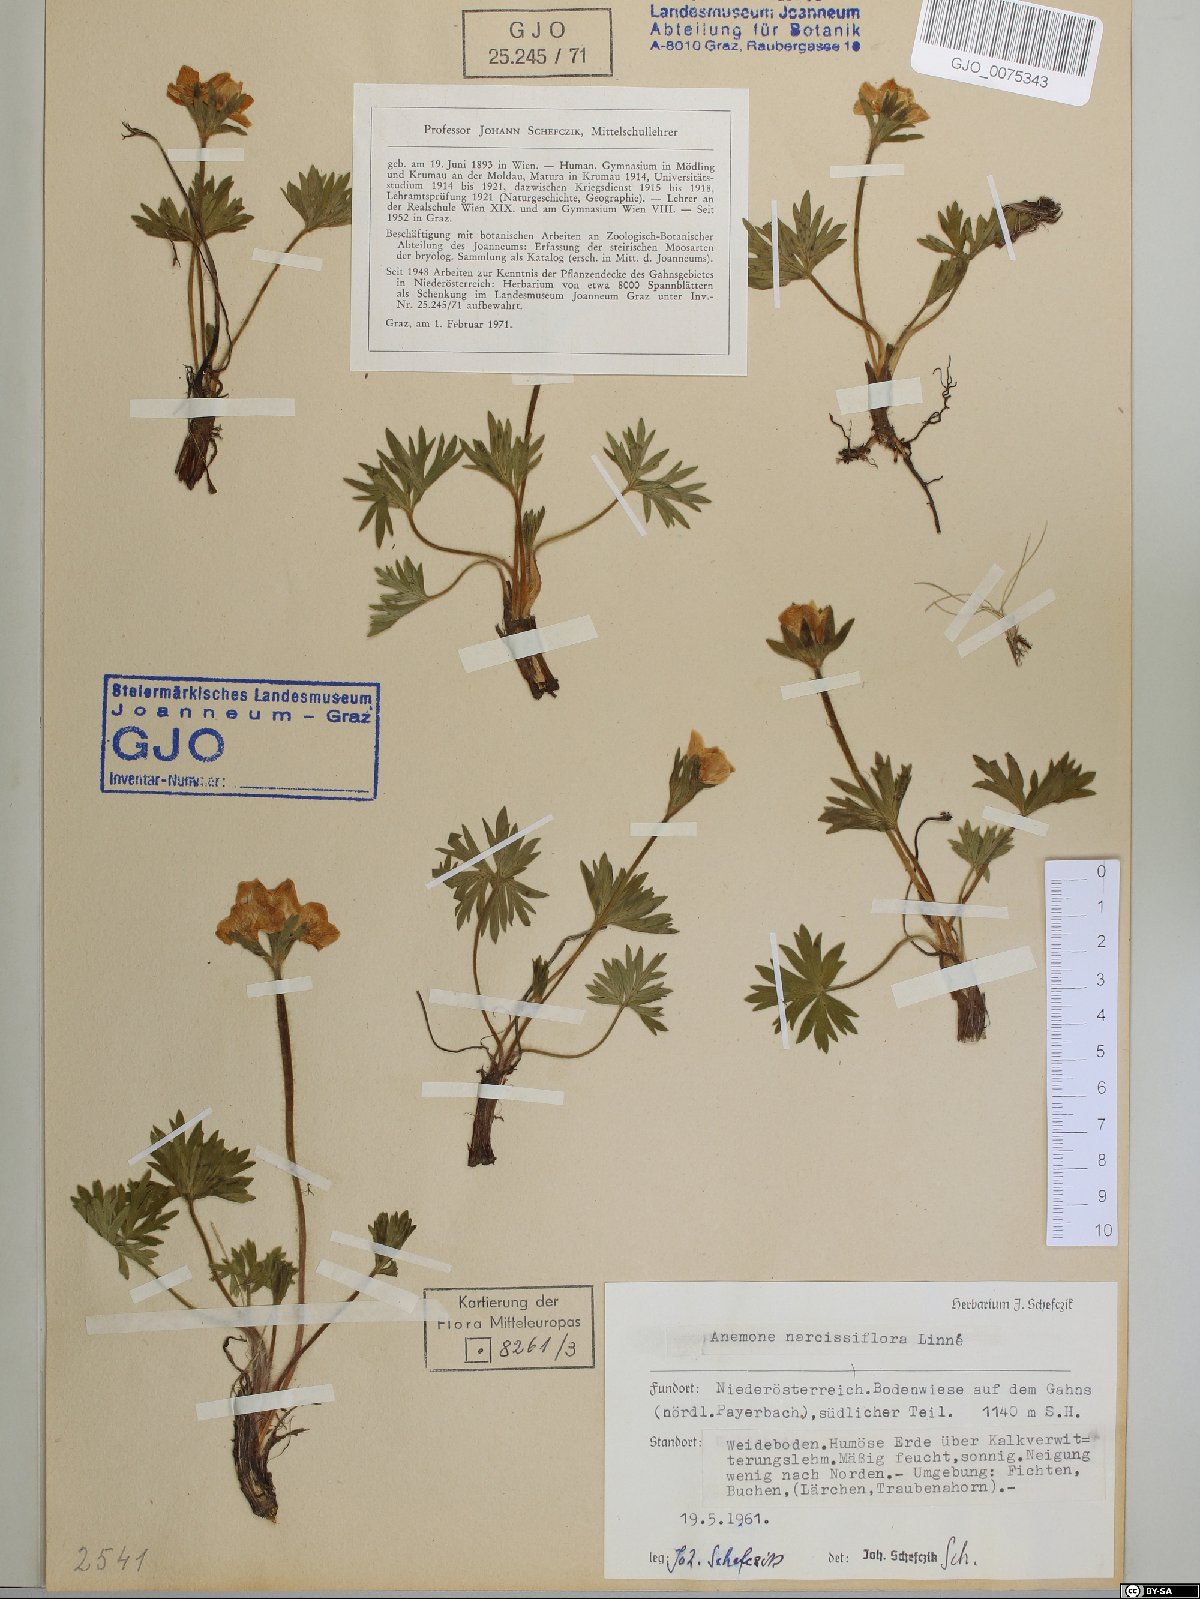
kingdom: Plantae
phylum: Tracheophyta
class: Magnoliopsida
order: Ranunculales
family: Ranunculaceae
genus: Anemonastrum
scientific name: Anemonastrum narcissiflorum
